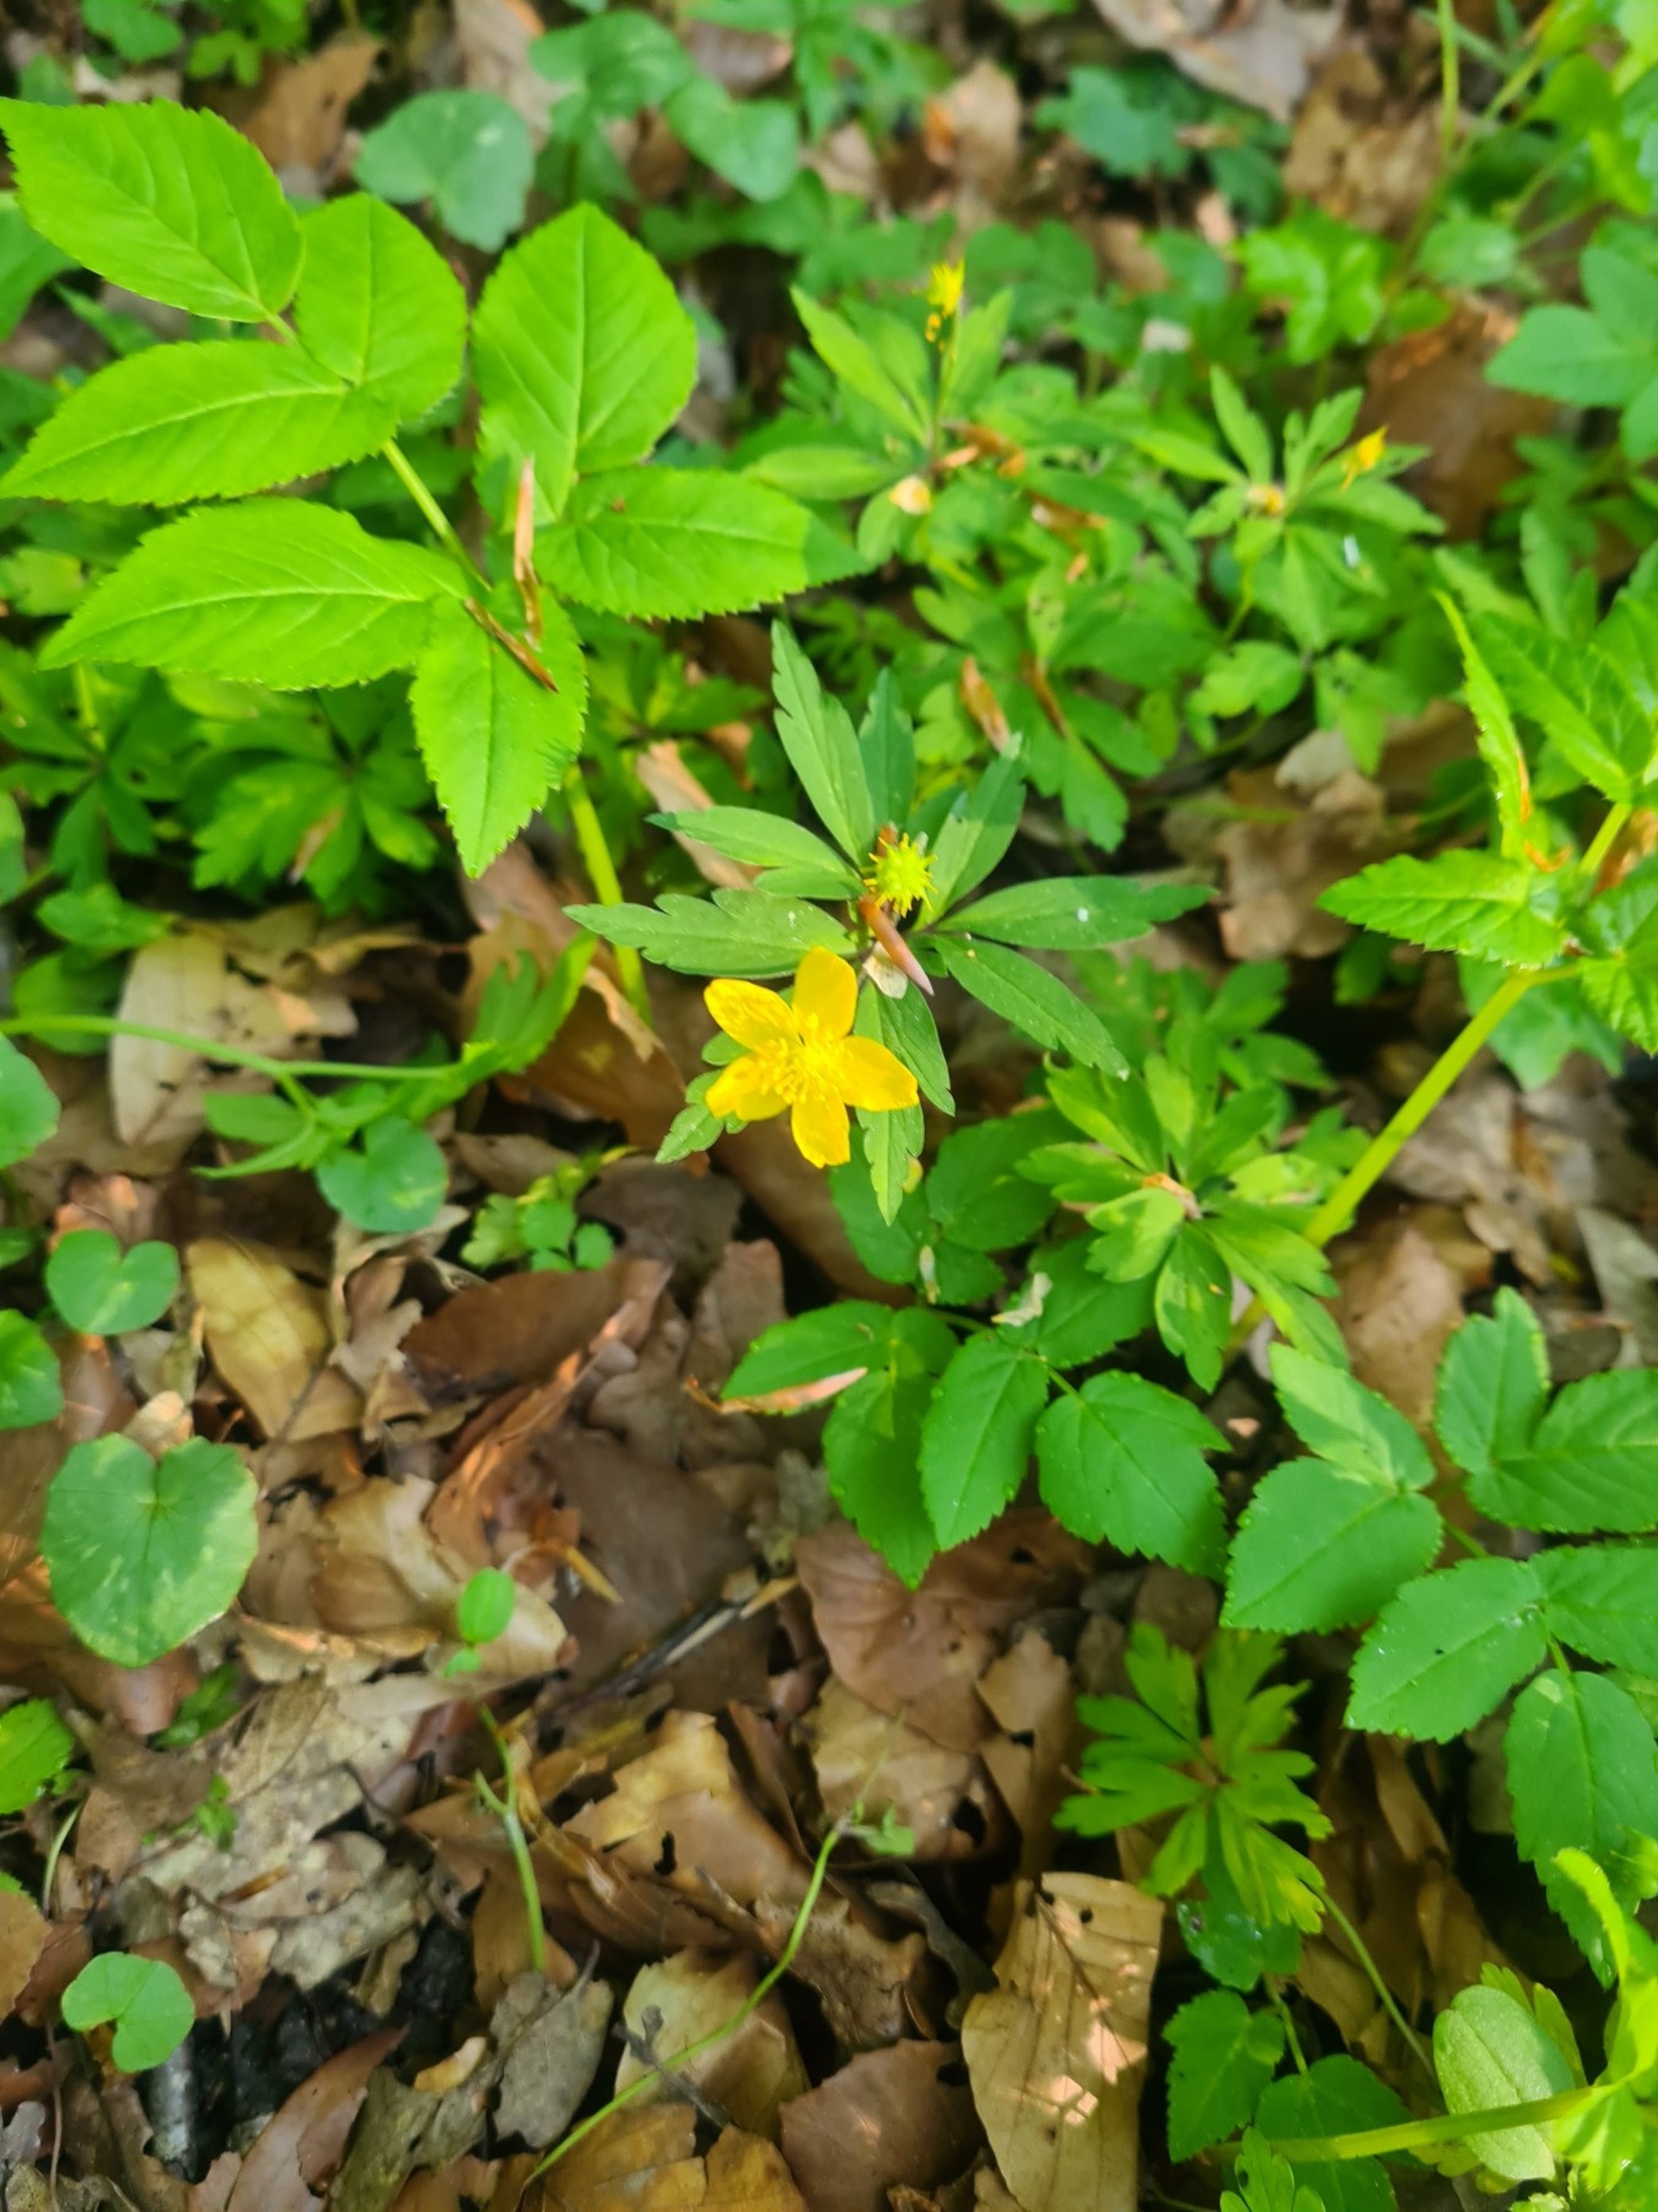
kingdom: Plantae
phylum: Tracheophyta
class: Magnoliopsida
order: Ranunculales
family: Ranunculaceae
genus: Anemone
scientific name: Anemone ranunculoides
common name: Gul anemone
